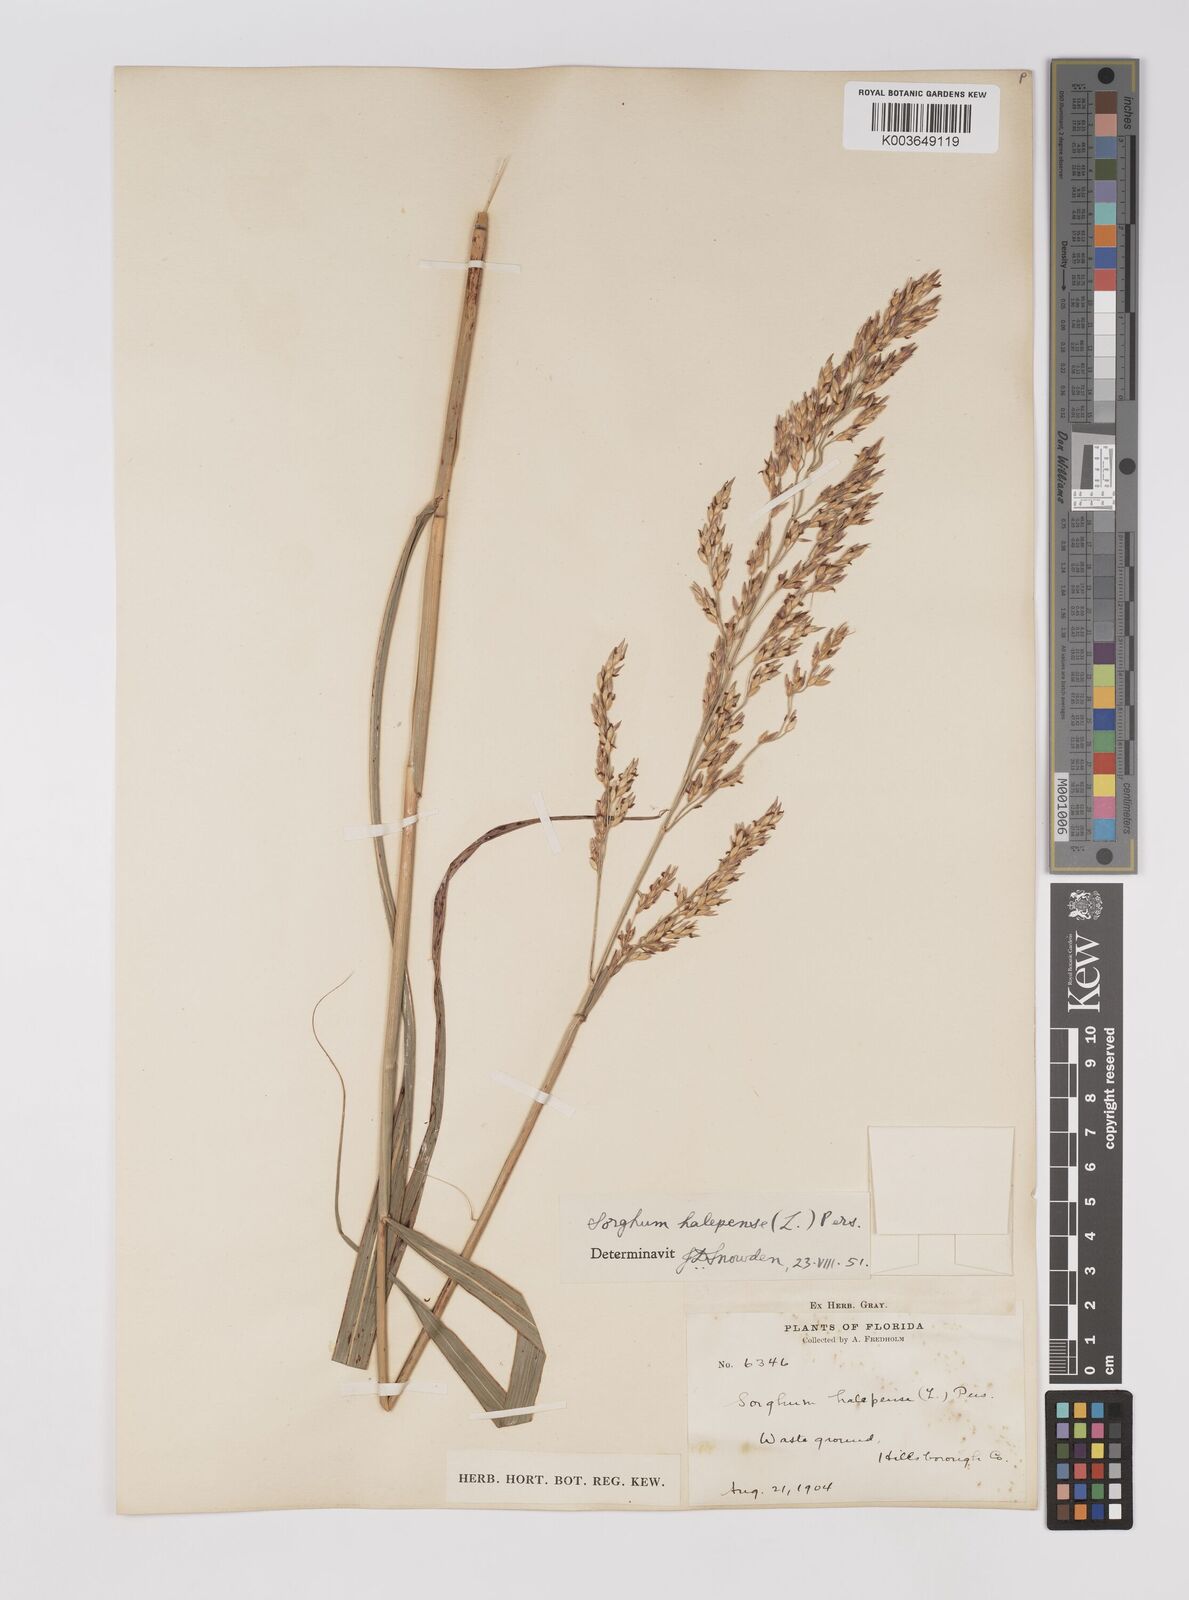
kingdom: Plantae
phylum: Tracheophyta
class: Liliopsida
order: Poales
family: Poaceae
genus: Sorghum
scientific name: Sorghum halepense
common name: Johnson-grass
